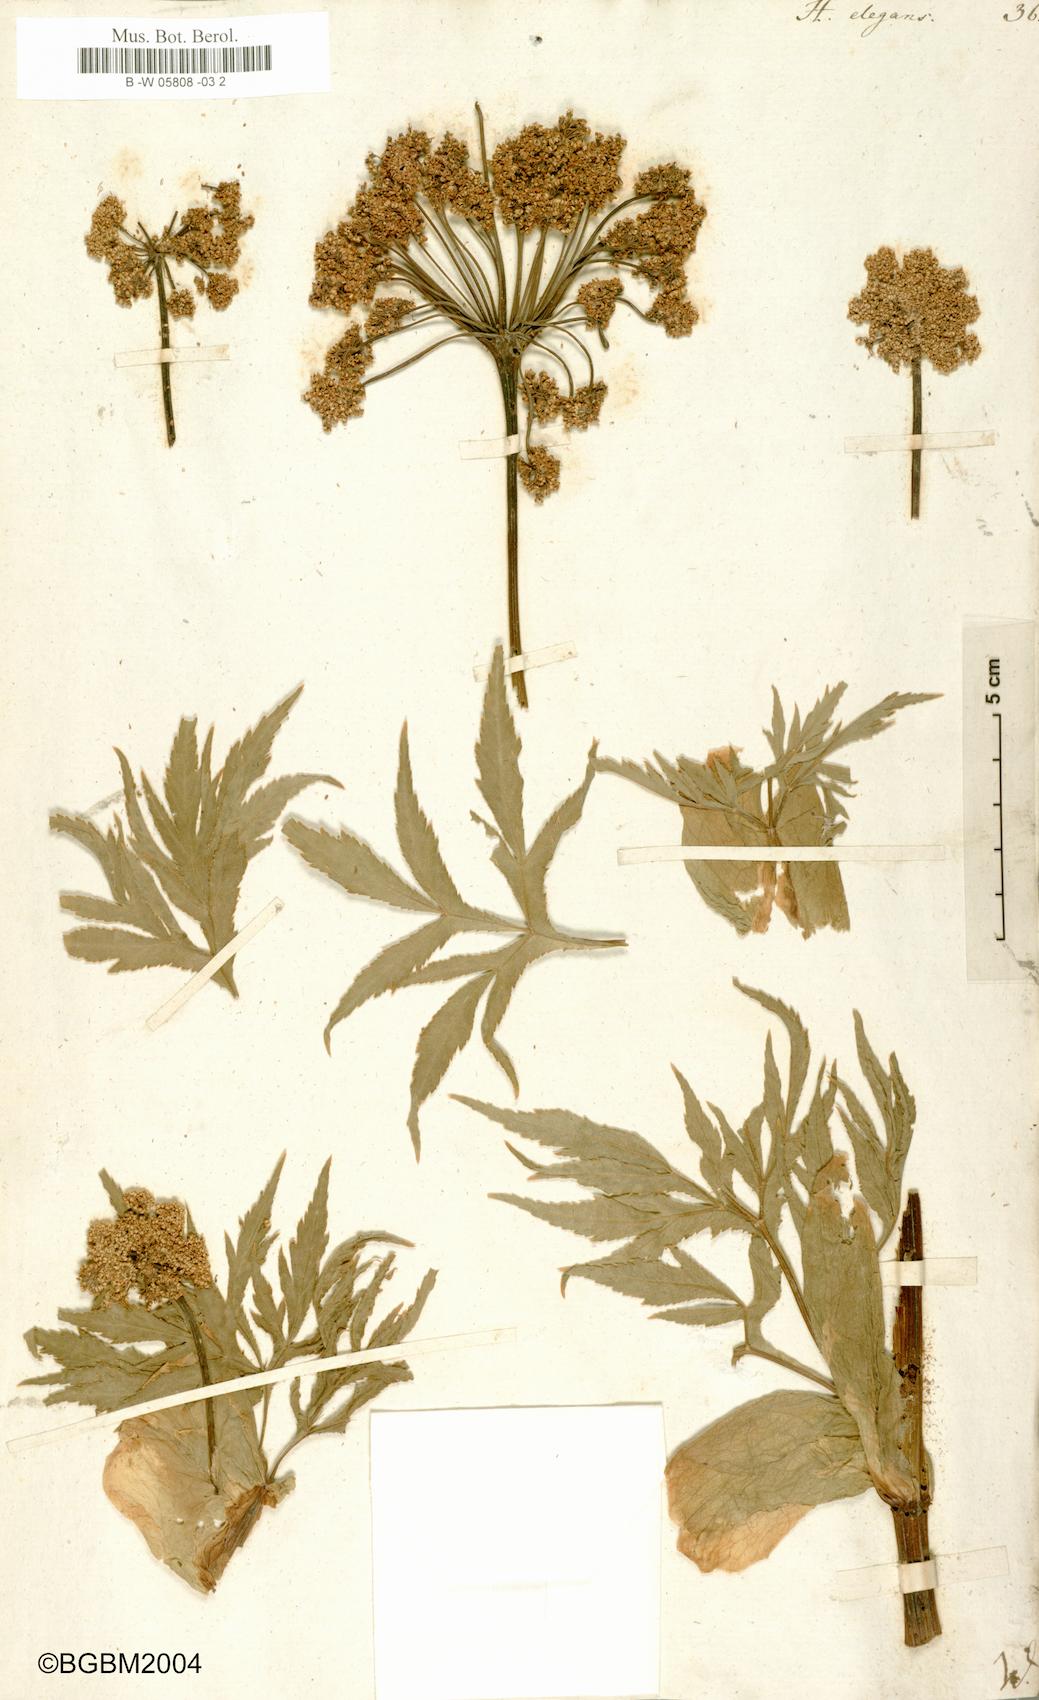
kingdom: Plantae
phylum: Tracheophyta
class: Magnoliopsida
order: Apiales
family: Apiaceae
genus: Heracleum
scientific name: Heracleum sphondylium
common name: Hogweed
